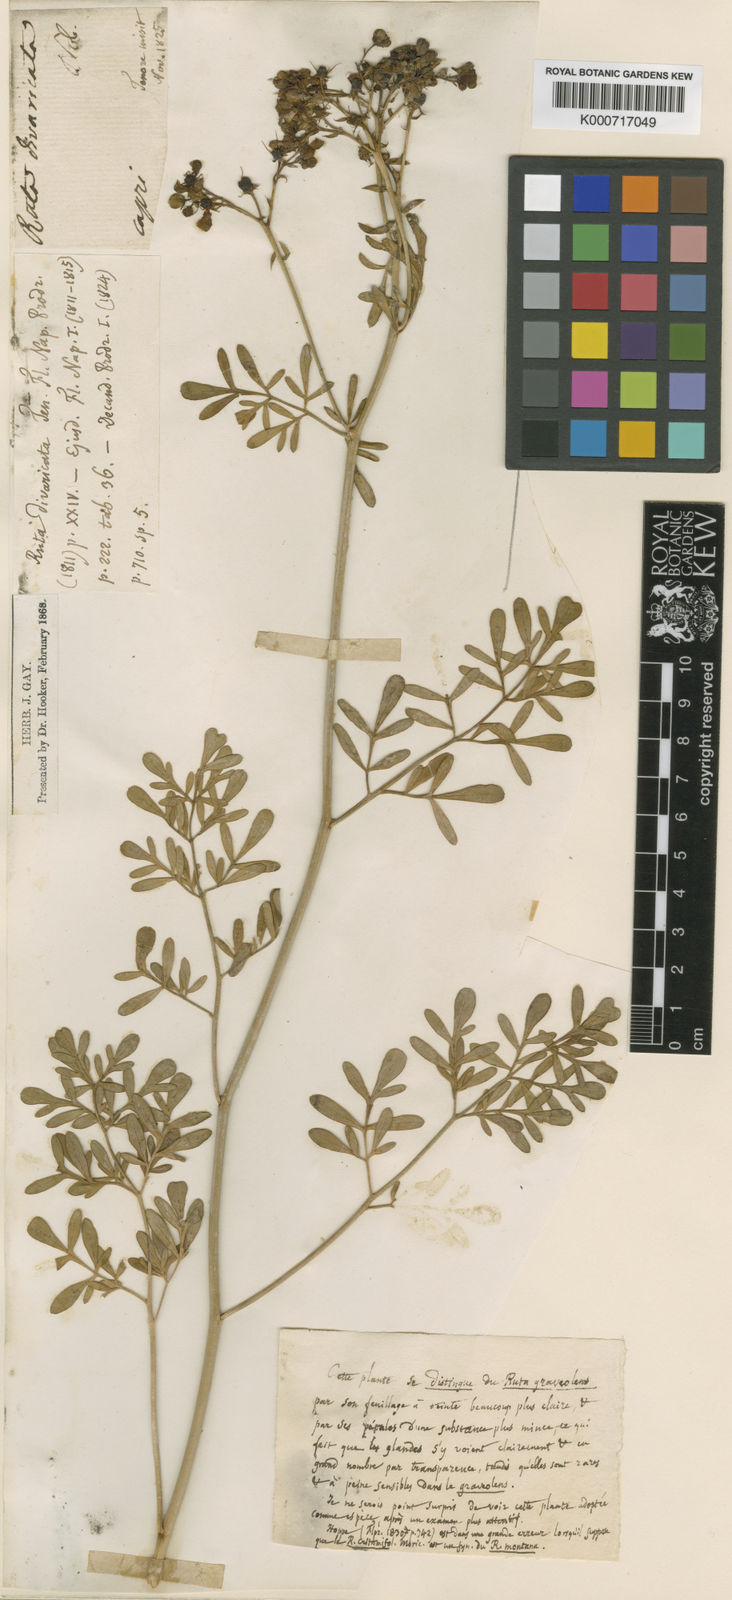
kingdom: Plantae
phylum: Tracheophyta
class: Magnoliopsida
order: Sapindales
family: Rutaceae
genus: Ruta
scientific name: Ruta graveolens
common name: Common rue
